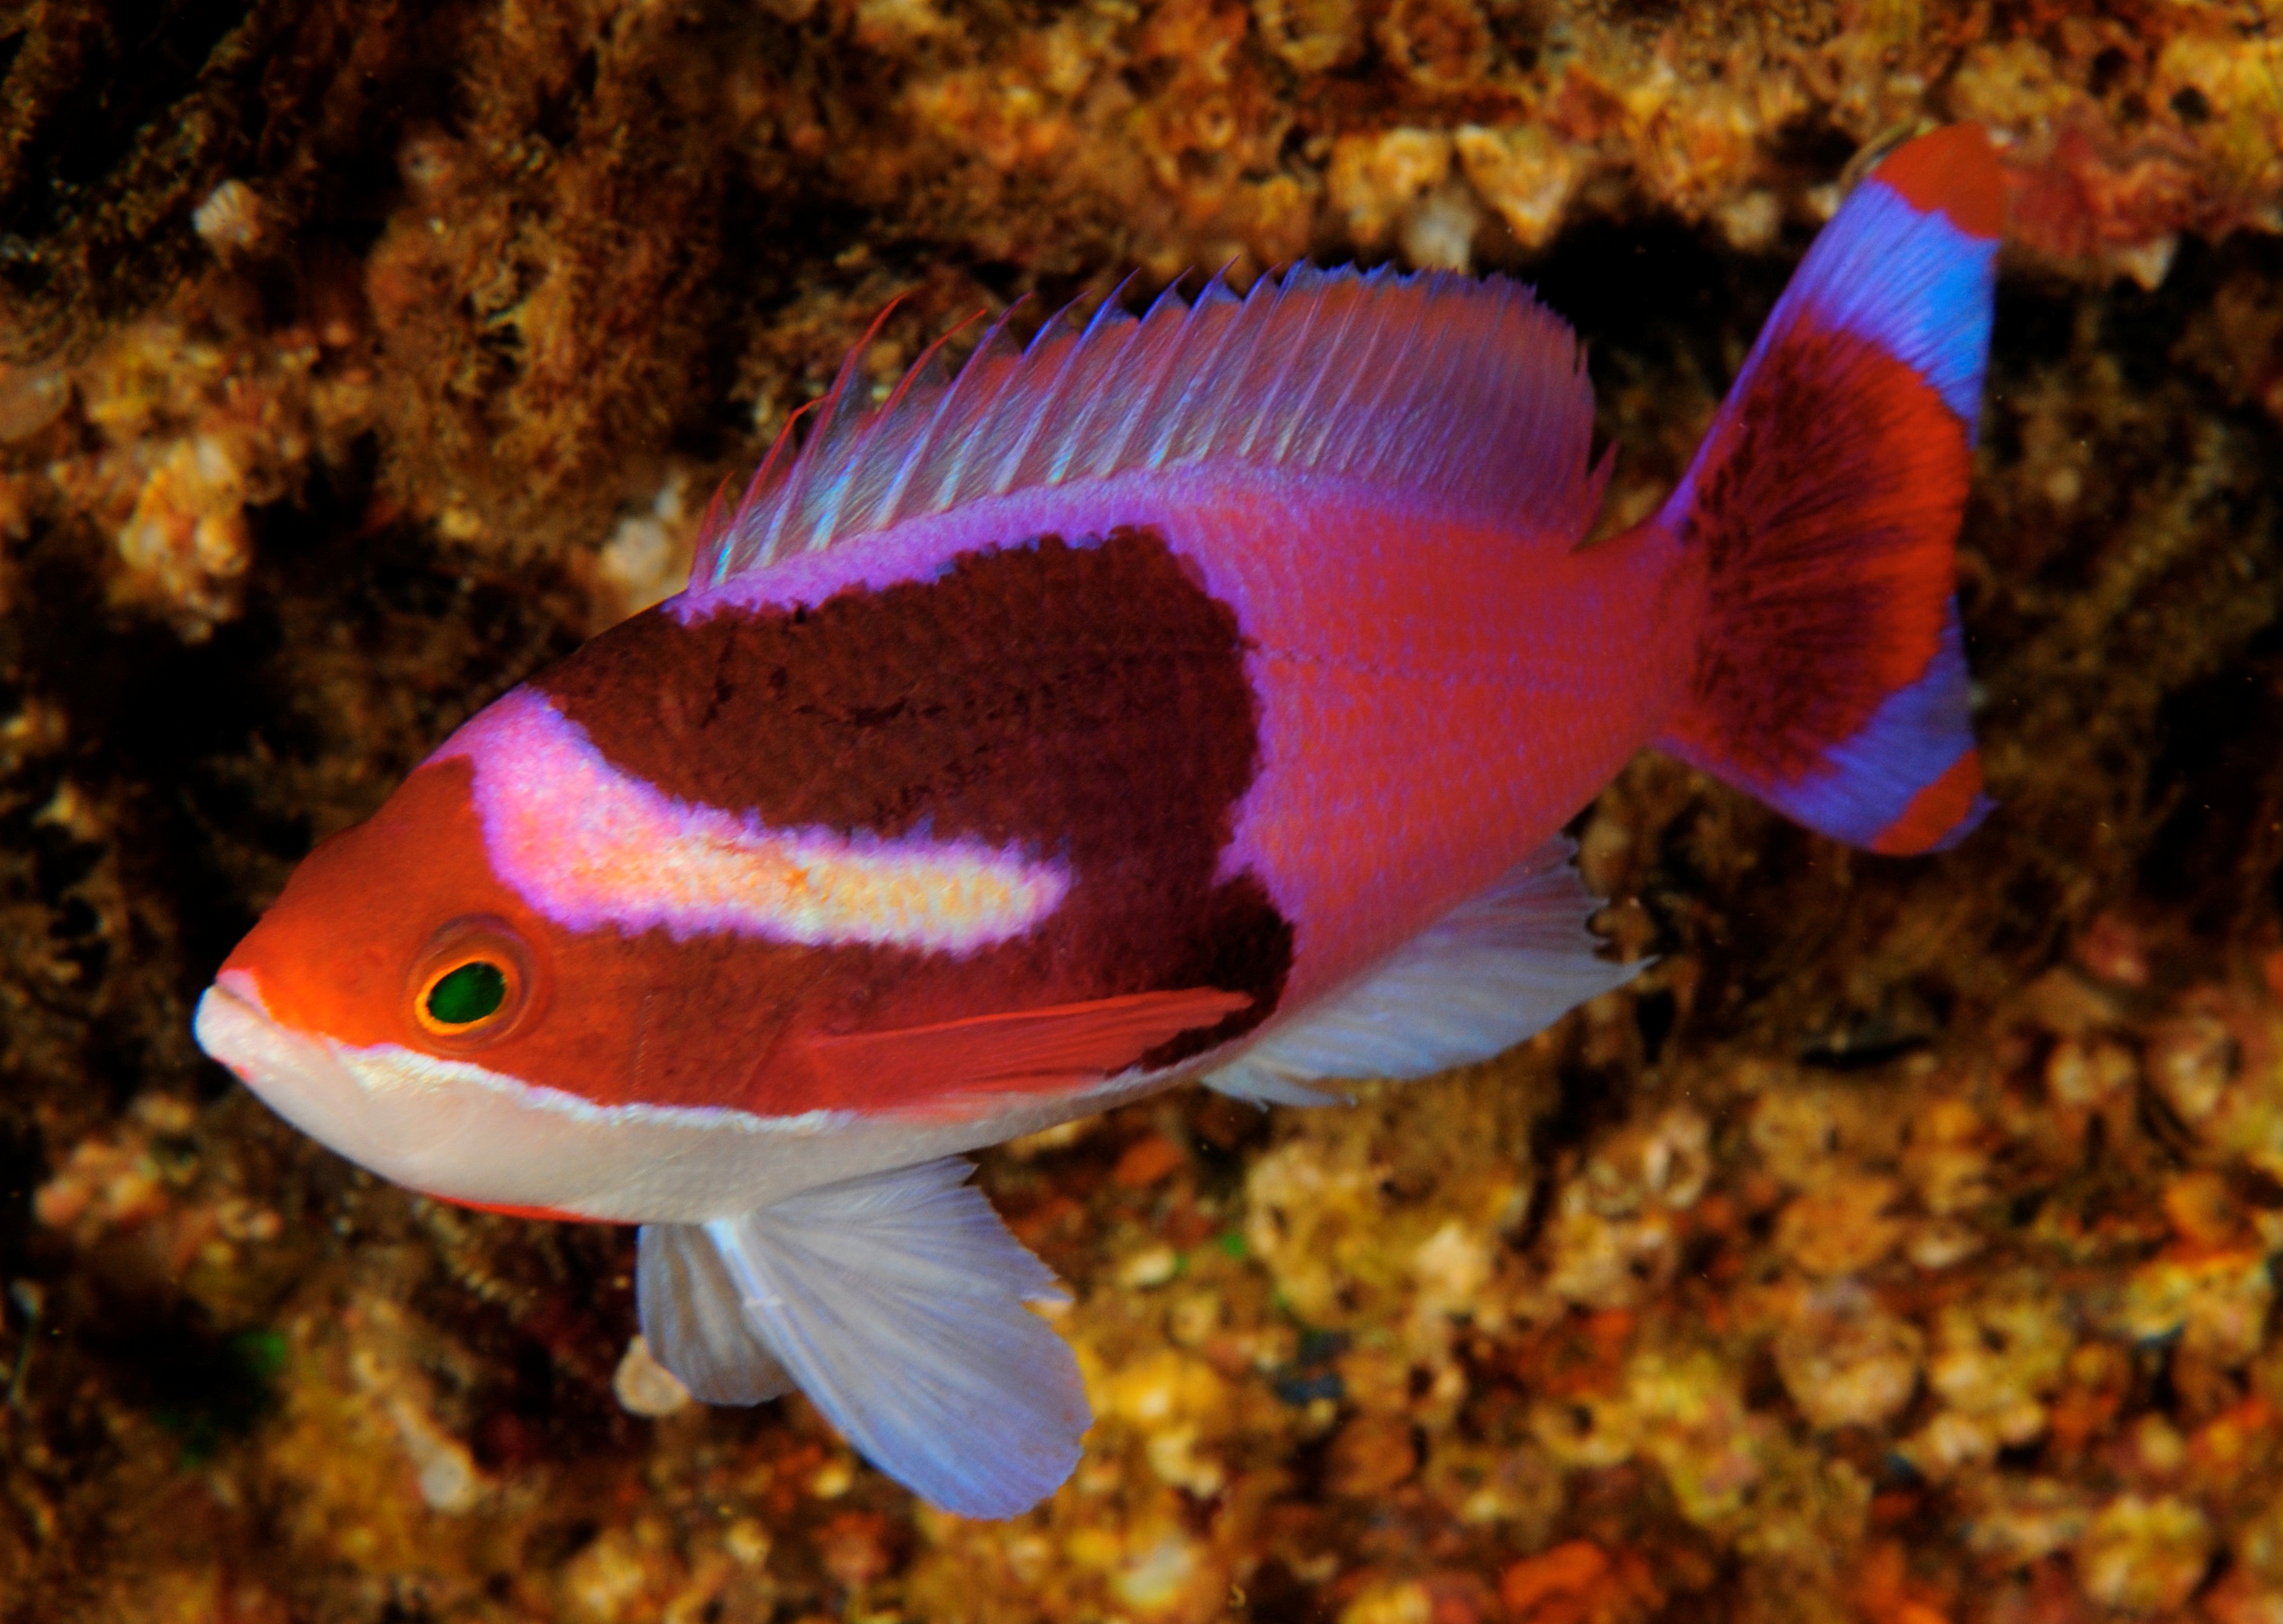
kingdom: Animalia
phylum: Chordata
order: Perciformes
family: Serranidae
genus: Pseudanthias
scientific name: Pseudanthias connelli
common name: Harlequin goldie
